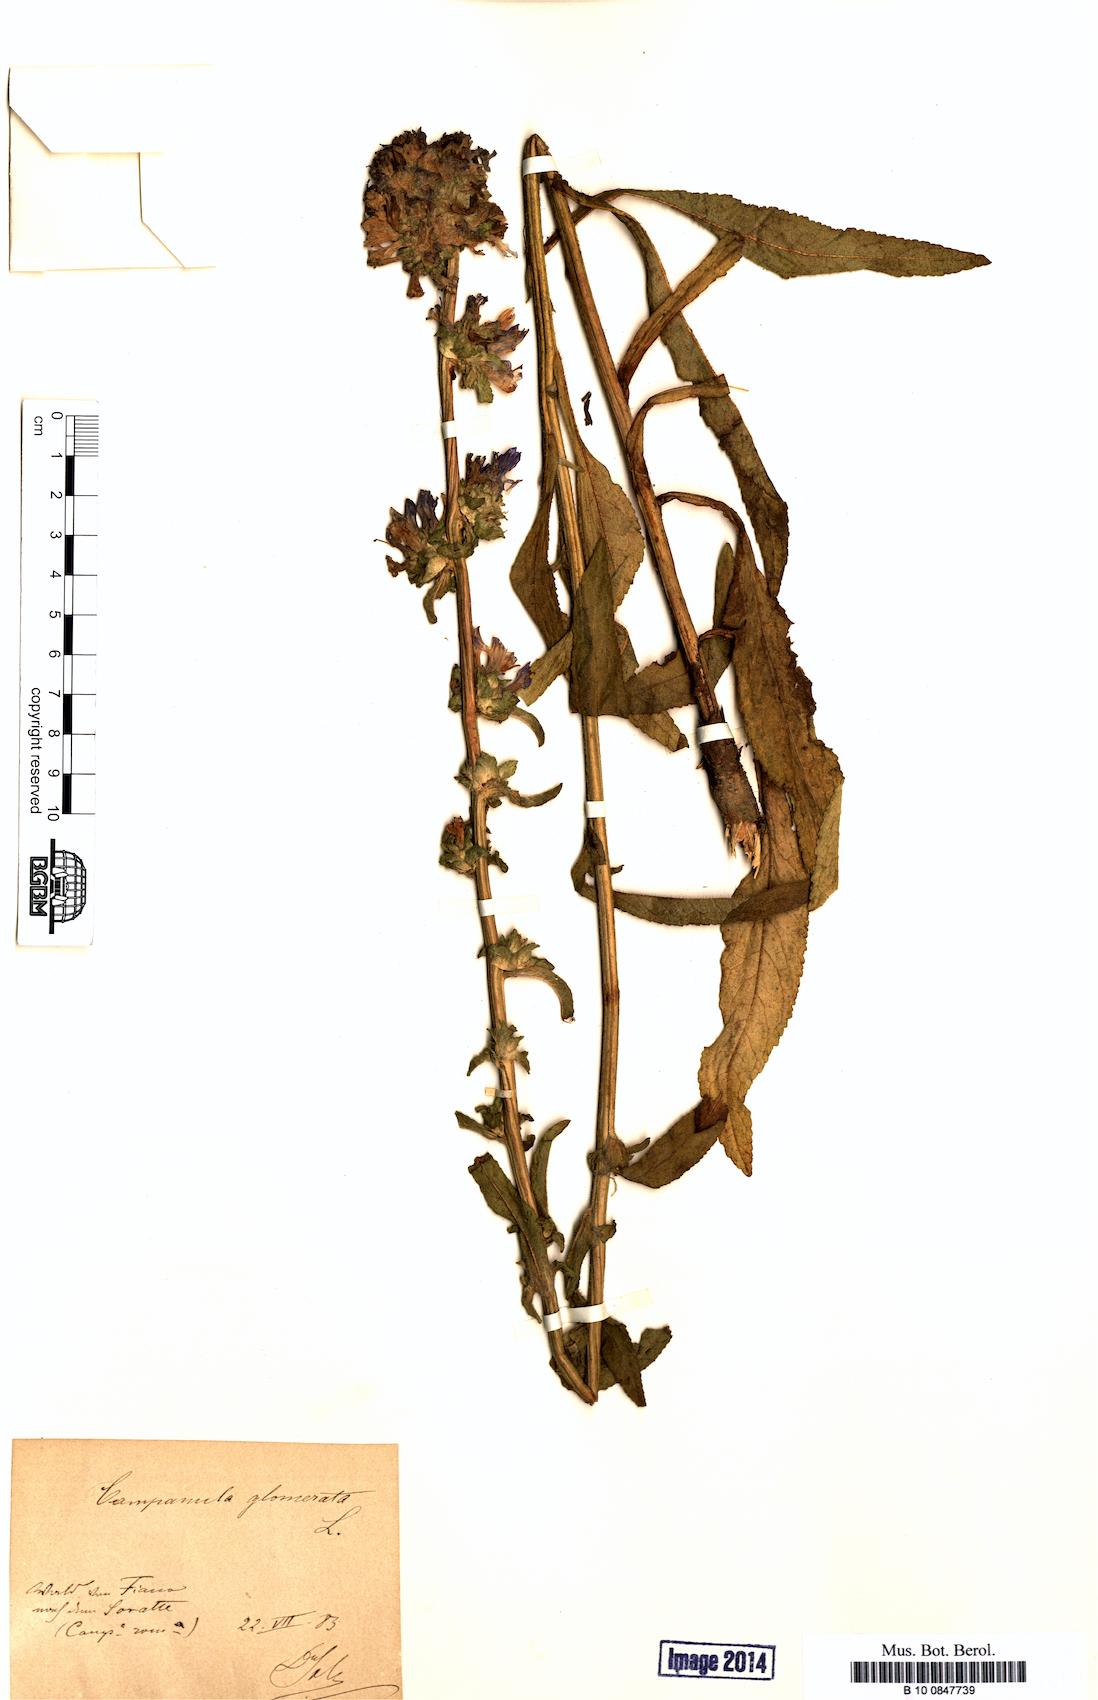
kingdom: Plantae
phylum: Tracheophyta
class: Magnoliopsida
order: Asterales
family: Campanulaceae
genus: Campanula
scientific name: Campanula glomerata
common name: Clustered bellflower
